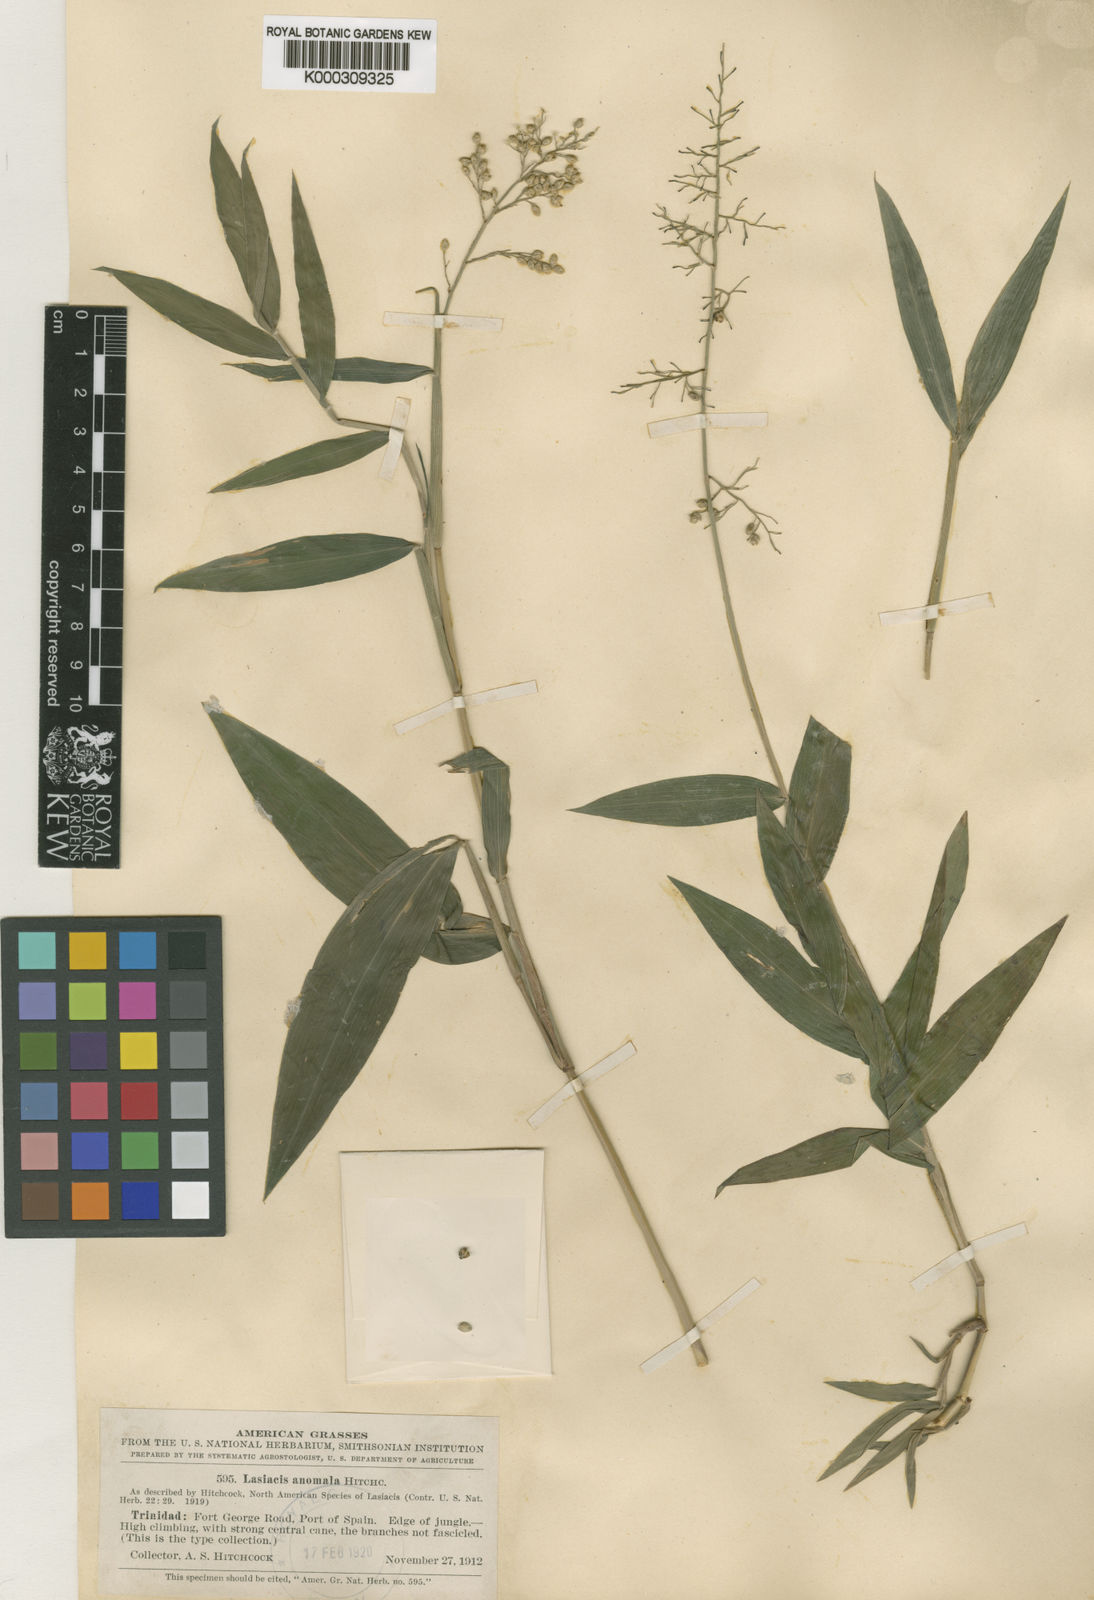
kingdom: Plantae
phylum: Tracheophyta
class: Liliopsida
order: Poales
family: Poaceae
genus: Lasiacis
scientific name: Lasiacis anomala
